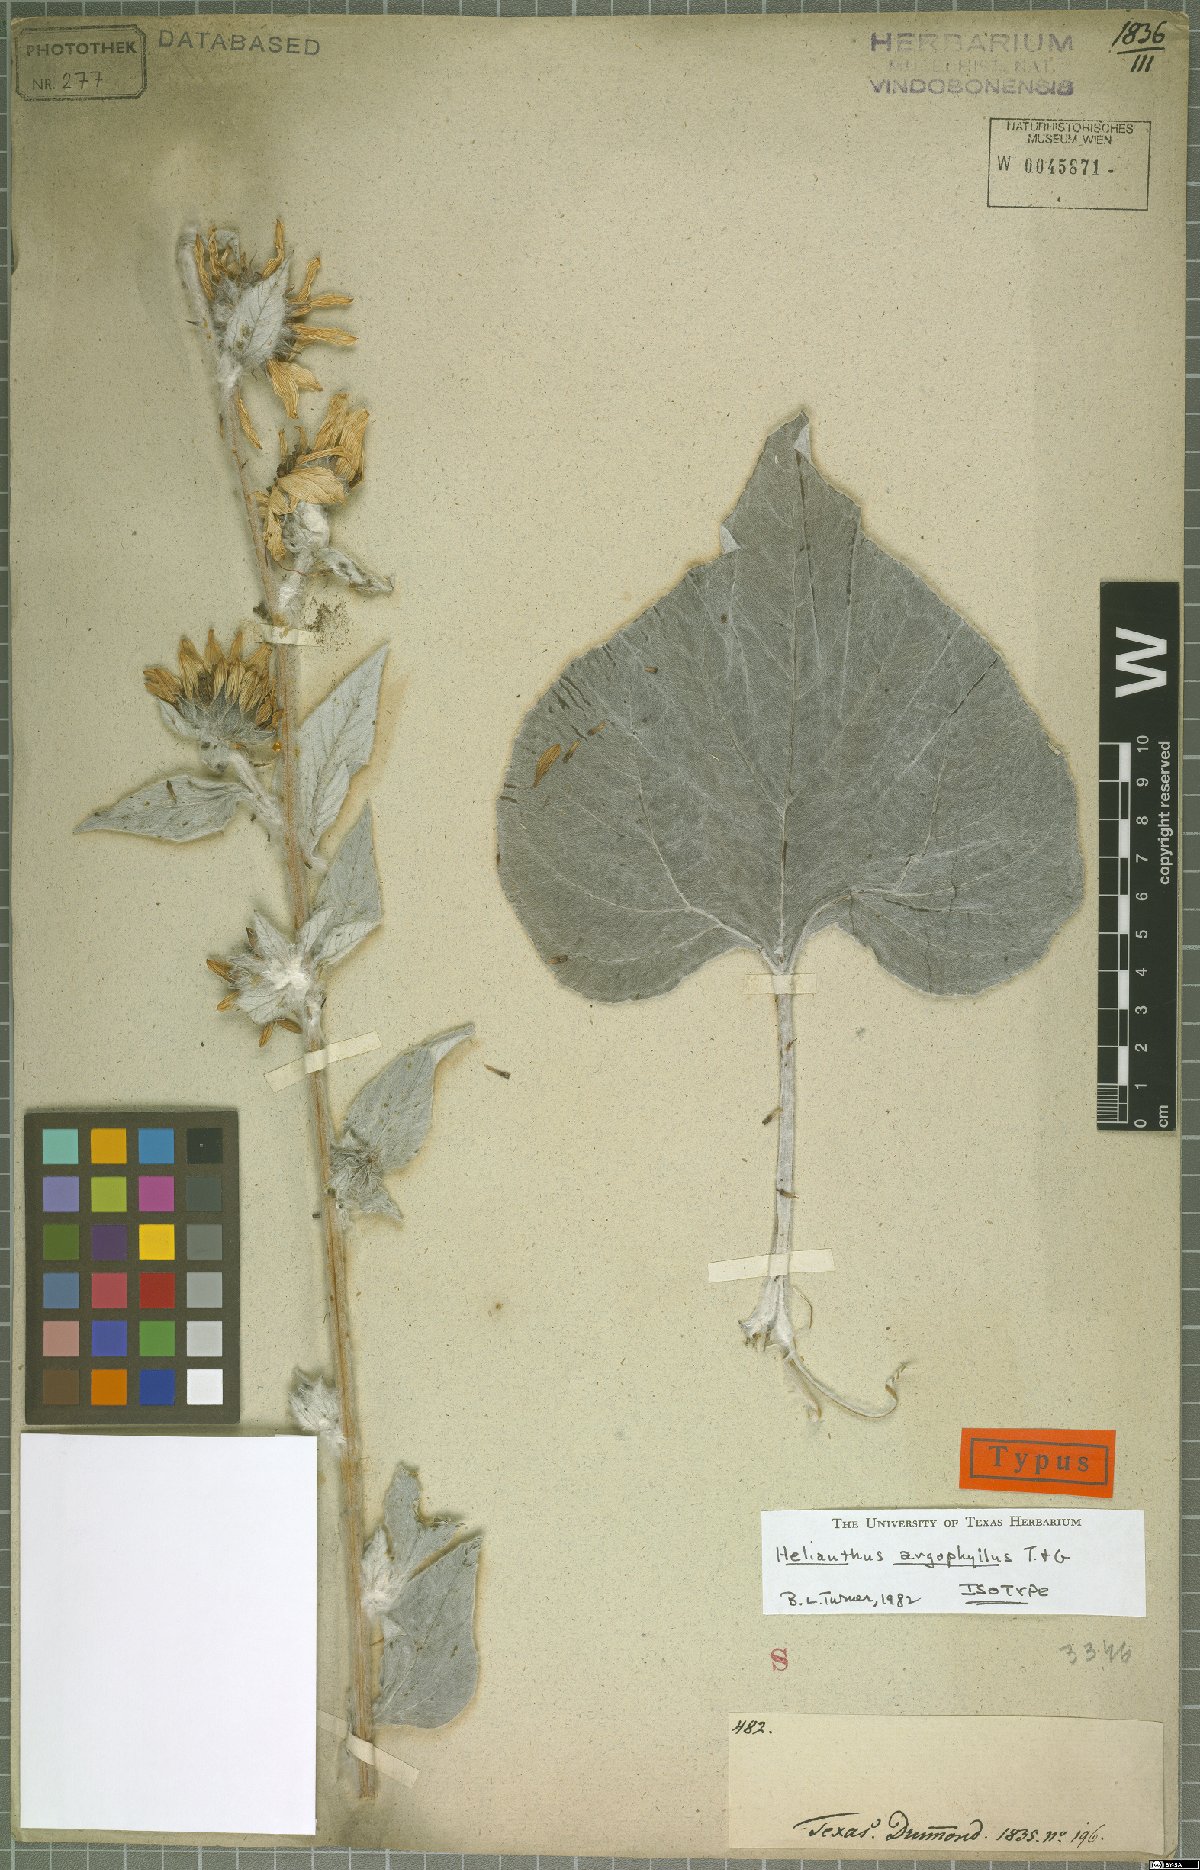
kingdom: Plantae
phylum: Tracheophyta
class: Magnoliopsida
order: Asterales
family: Asteraceae
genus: Helianthus
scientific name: Helianthus argophyllus
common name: Silverleaf sunflower
